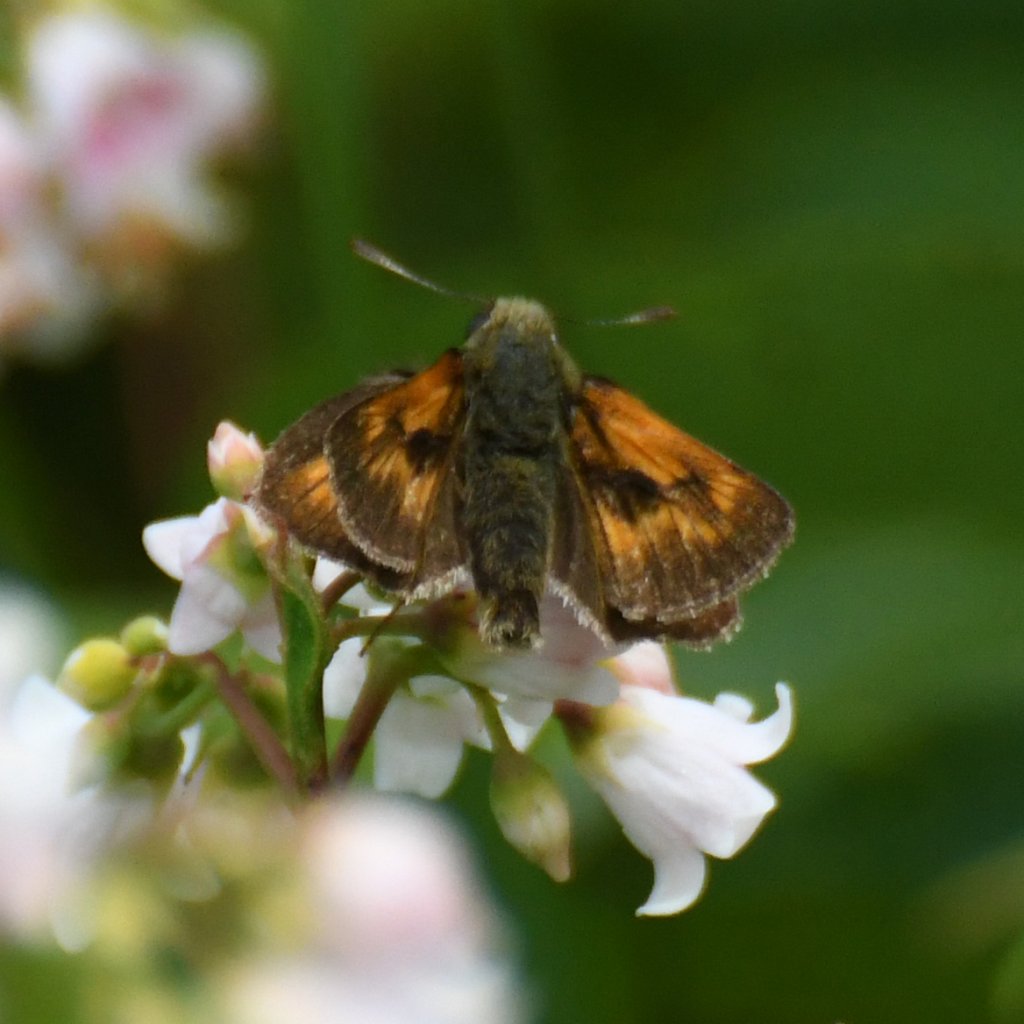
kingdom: Animalia
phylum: Arthropoda
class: Insecta
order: Lepidoptera
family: Hesperiidae
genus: Polites
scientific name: Polites
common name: Long Dash Skipper
